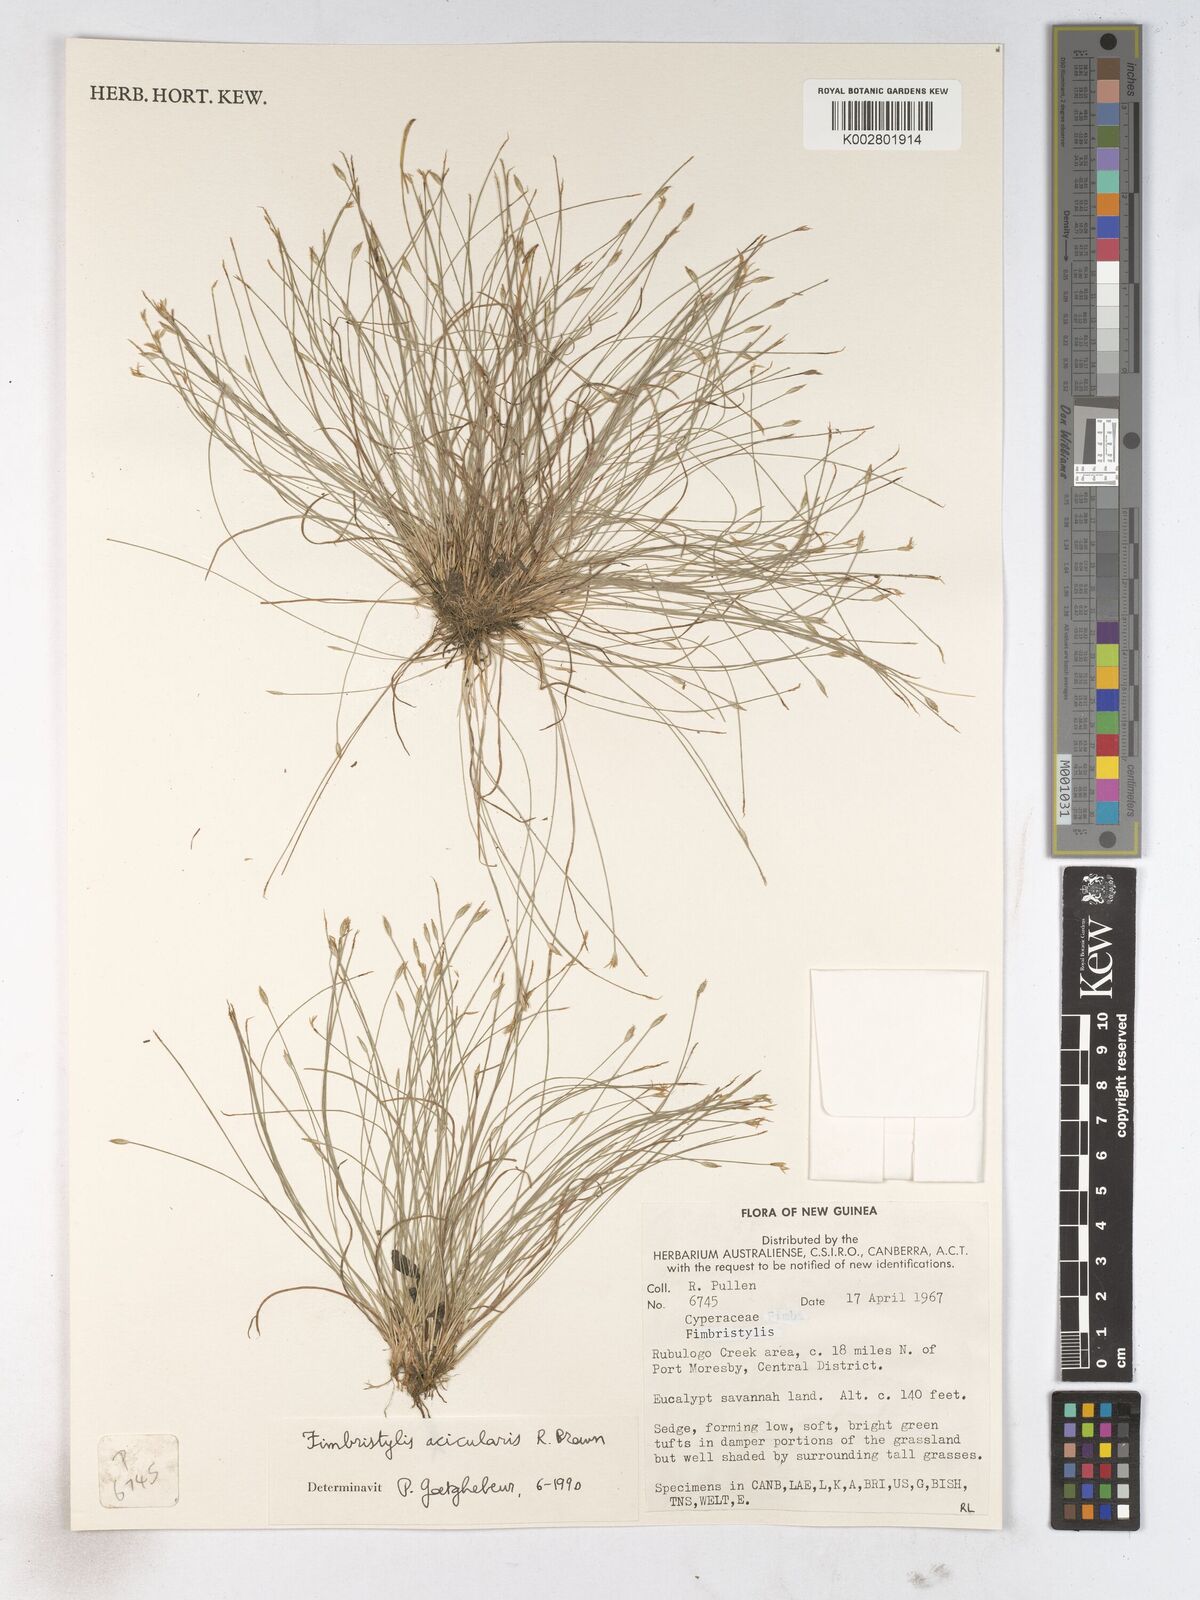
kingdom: Plantae
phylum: Tracheophyta
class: Liliopsida
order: Poales
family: Cyperaceae
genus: Fimbristylis
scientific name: Fimbristylis acicularis
